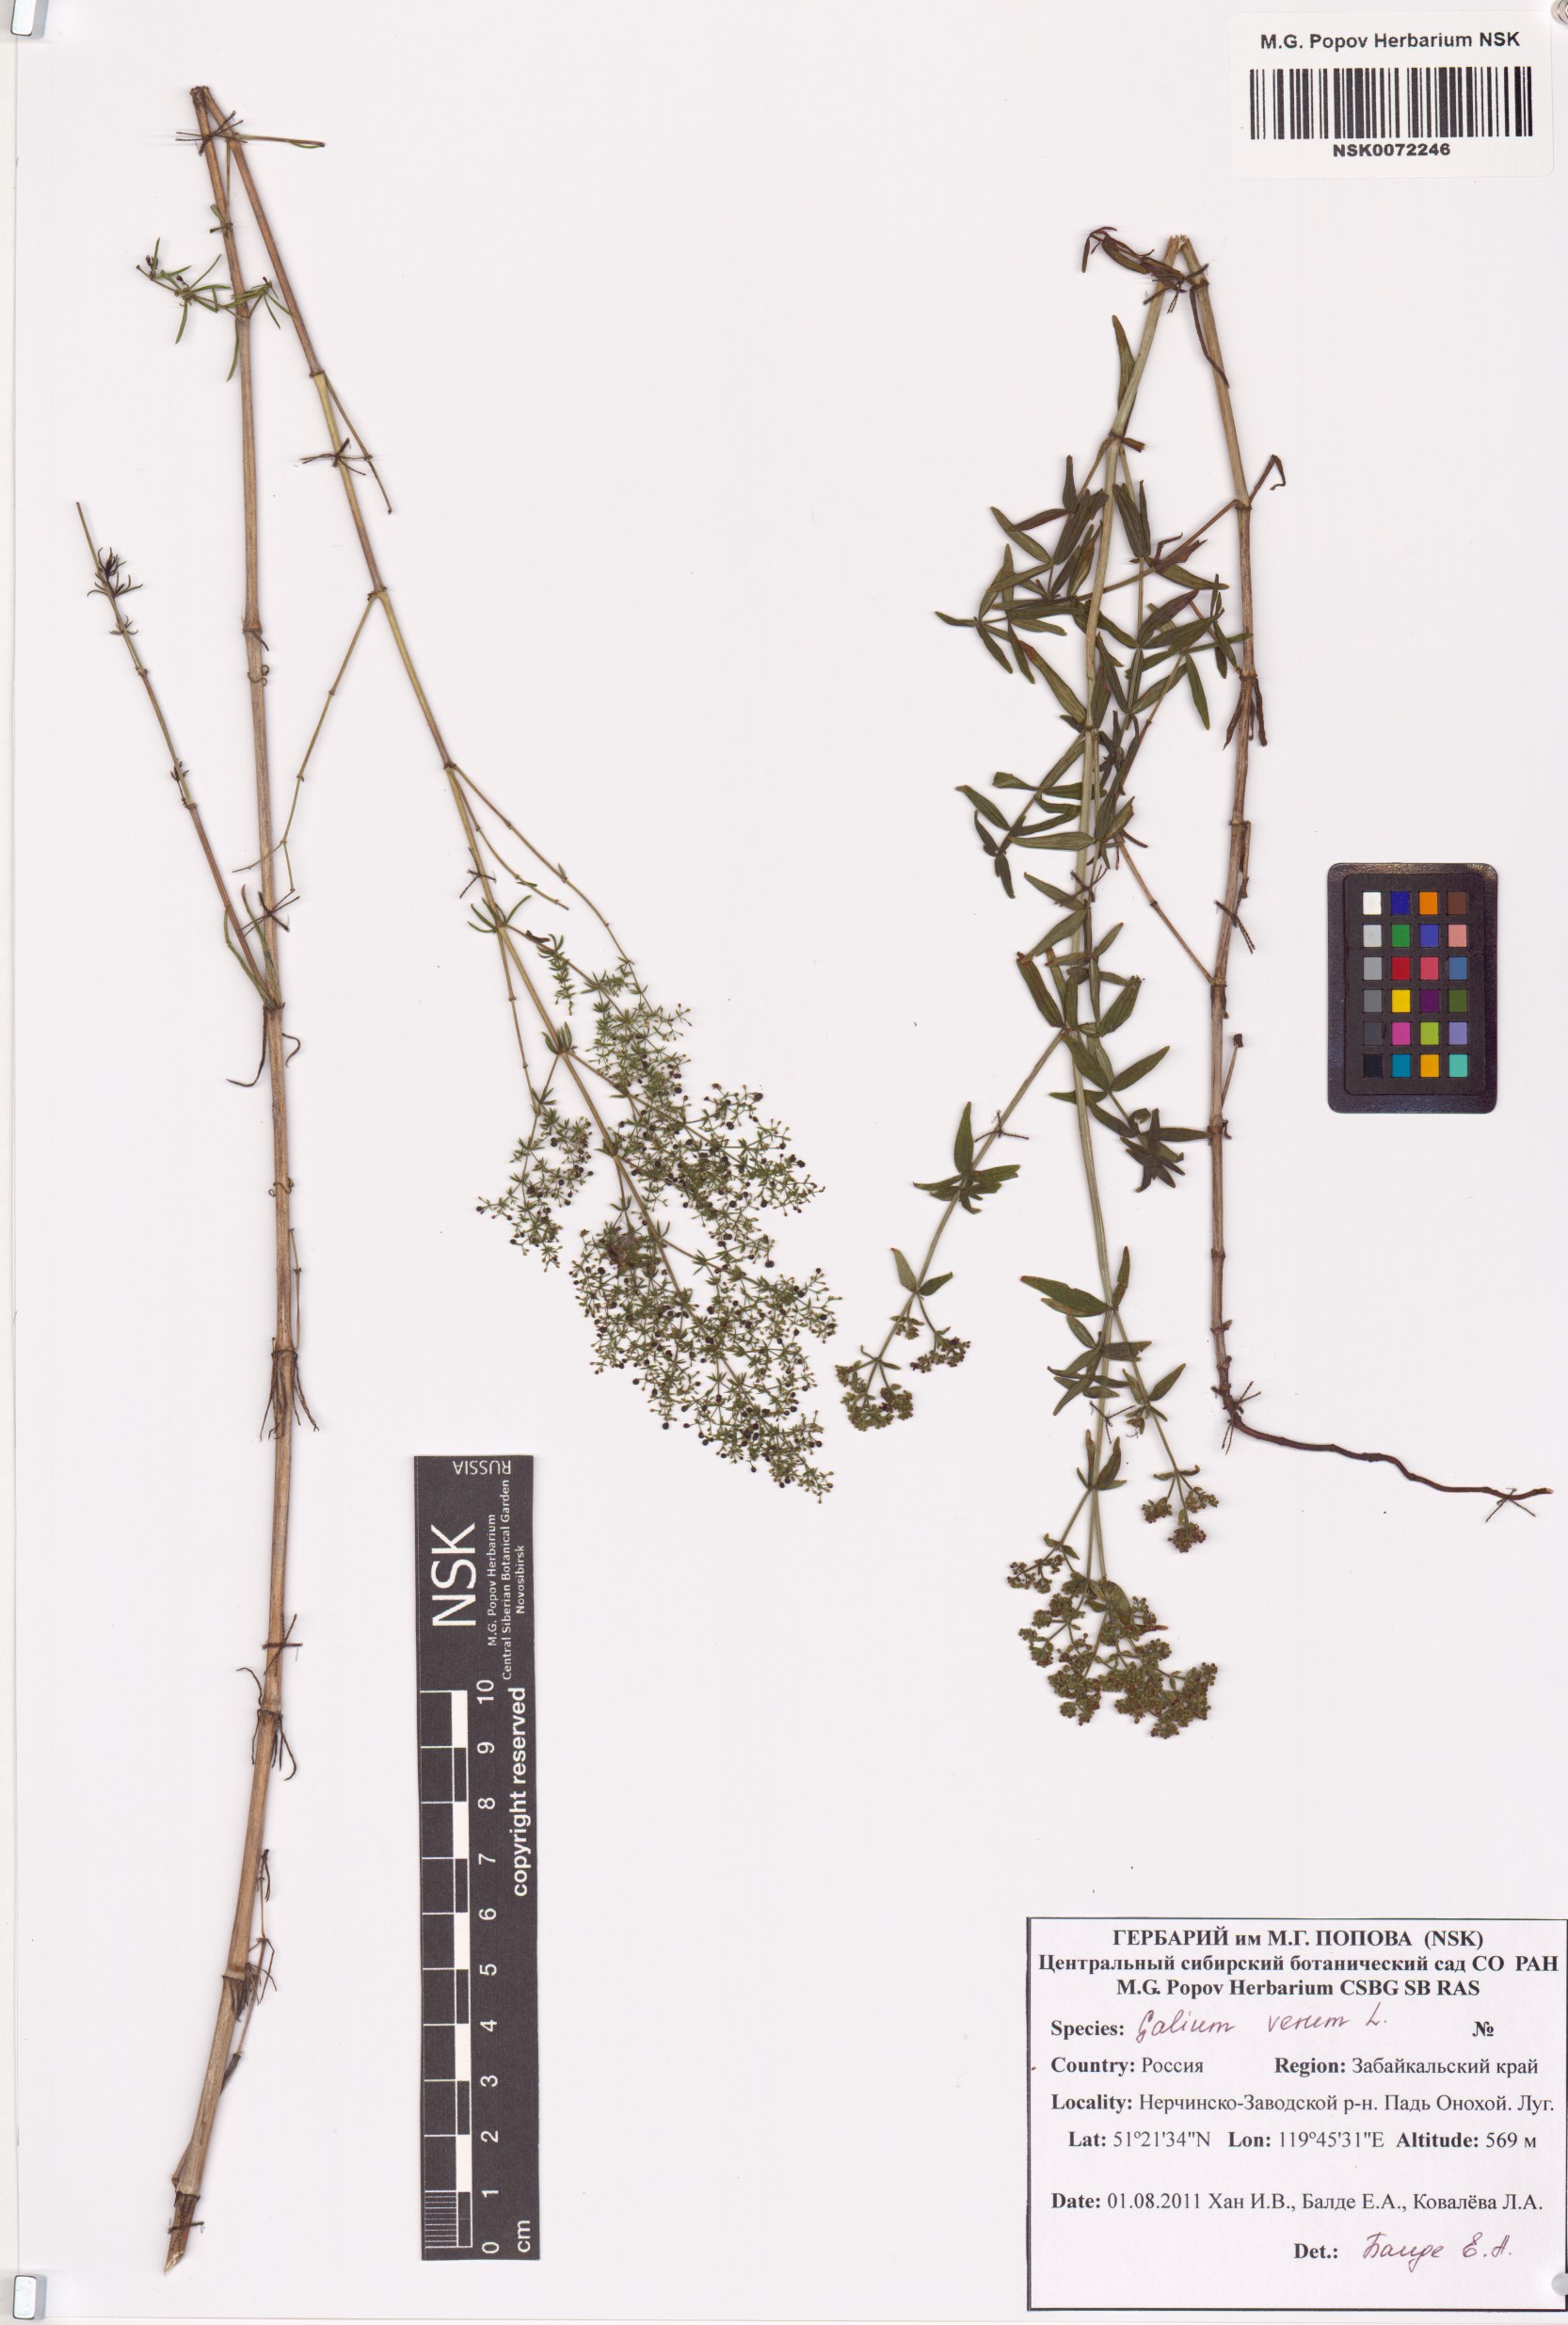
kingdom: Plantae
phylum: Tracheophyta
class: Magnoliopsida
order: Gentianales
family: Rubiaceae
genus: Galium
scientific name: Galium verum
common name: Lady's bedstraw
